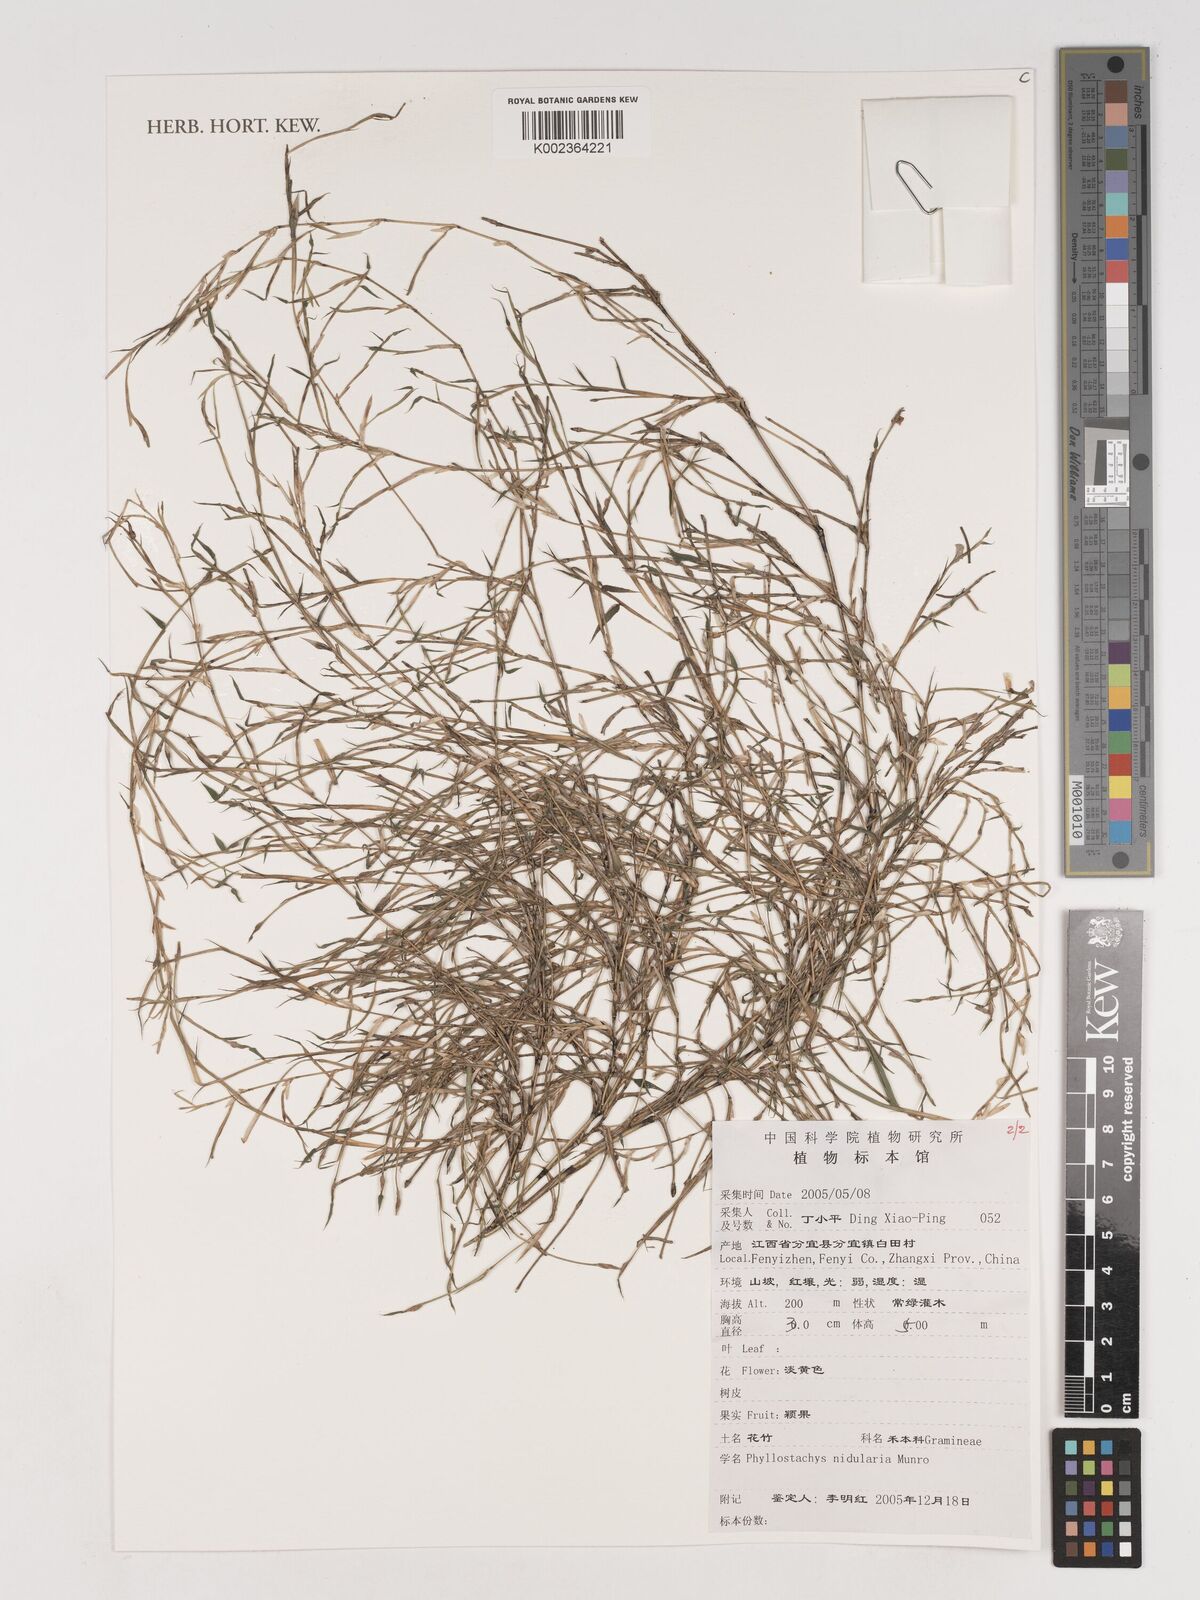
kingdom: Plantae
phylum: Tracheophyta
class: Liliopsida
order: Poales
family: Poaceae
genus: Phyllostachys
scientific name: Phyllostachys nidularia
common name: Broom bamboo
